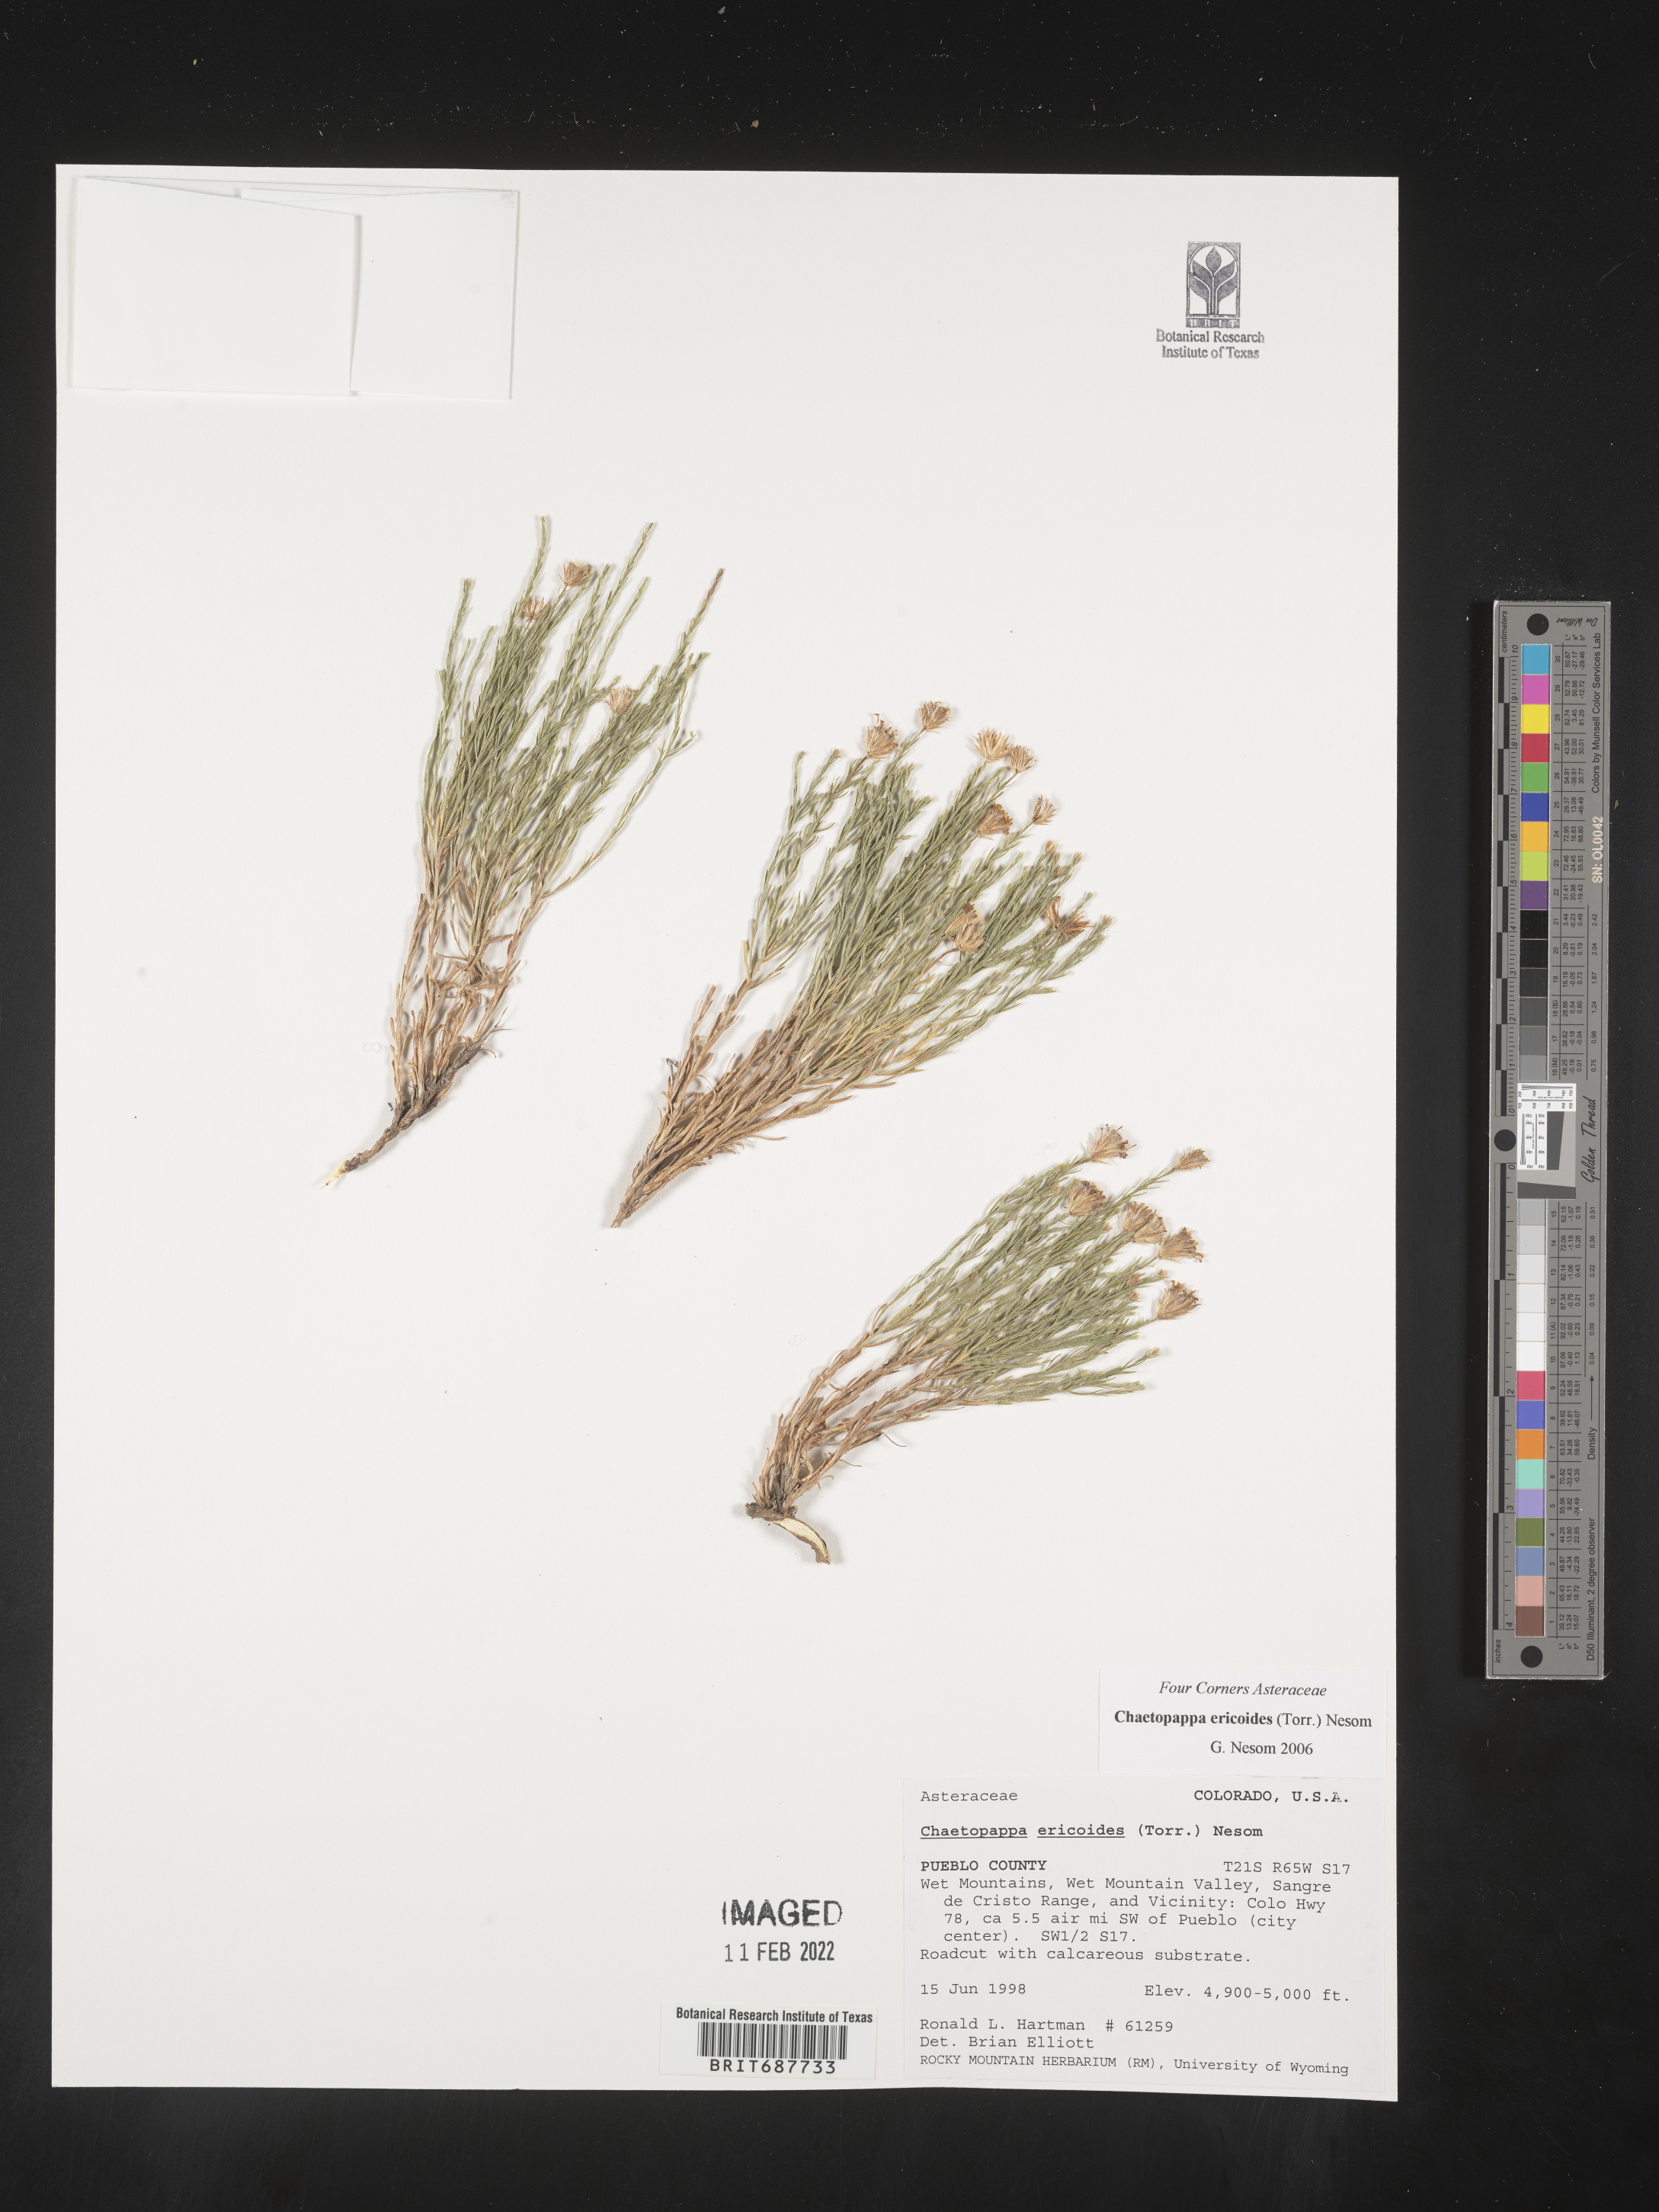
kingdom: Plantae
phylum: Tracheophyta
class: Magnoliopsida
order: Asterales
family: Asteraceae
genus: Chaetopappa
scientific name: Chaetopappa ericoides
